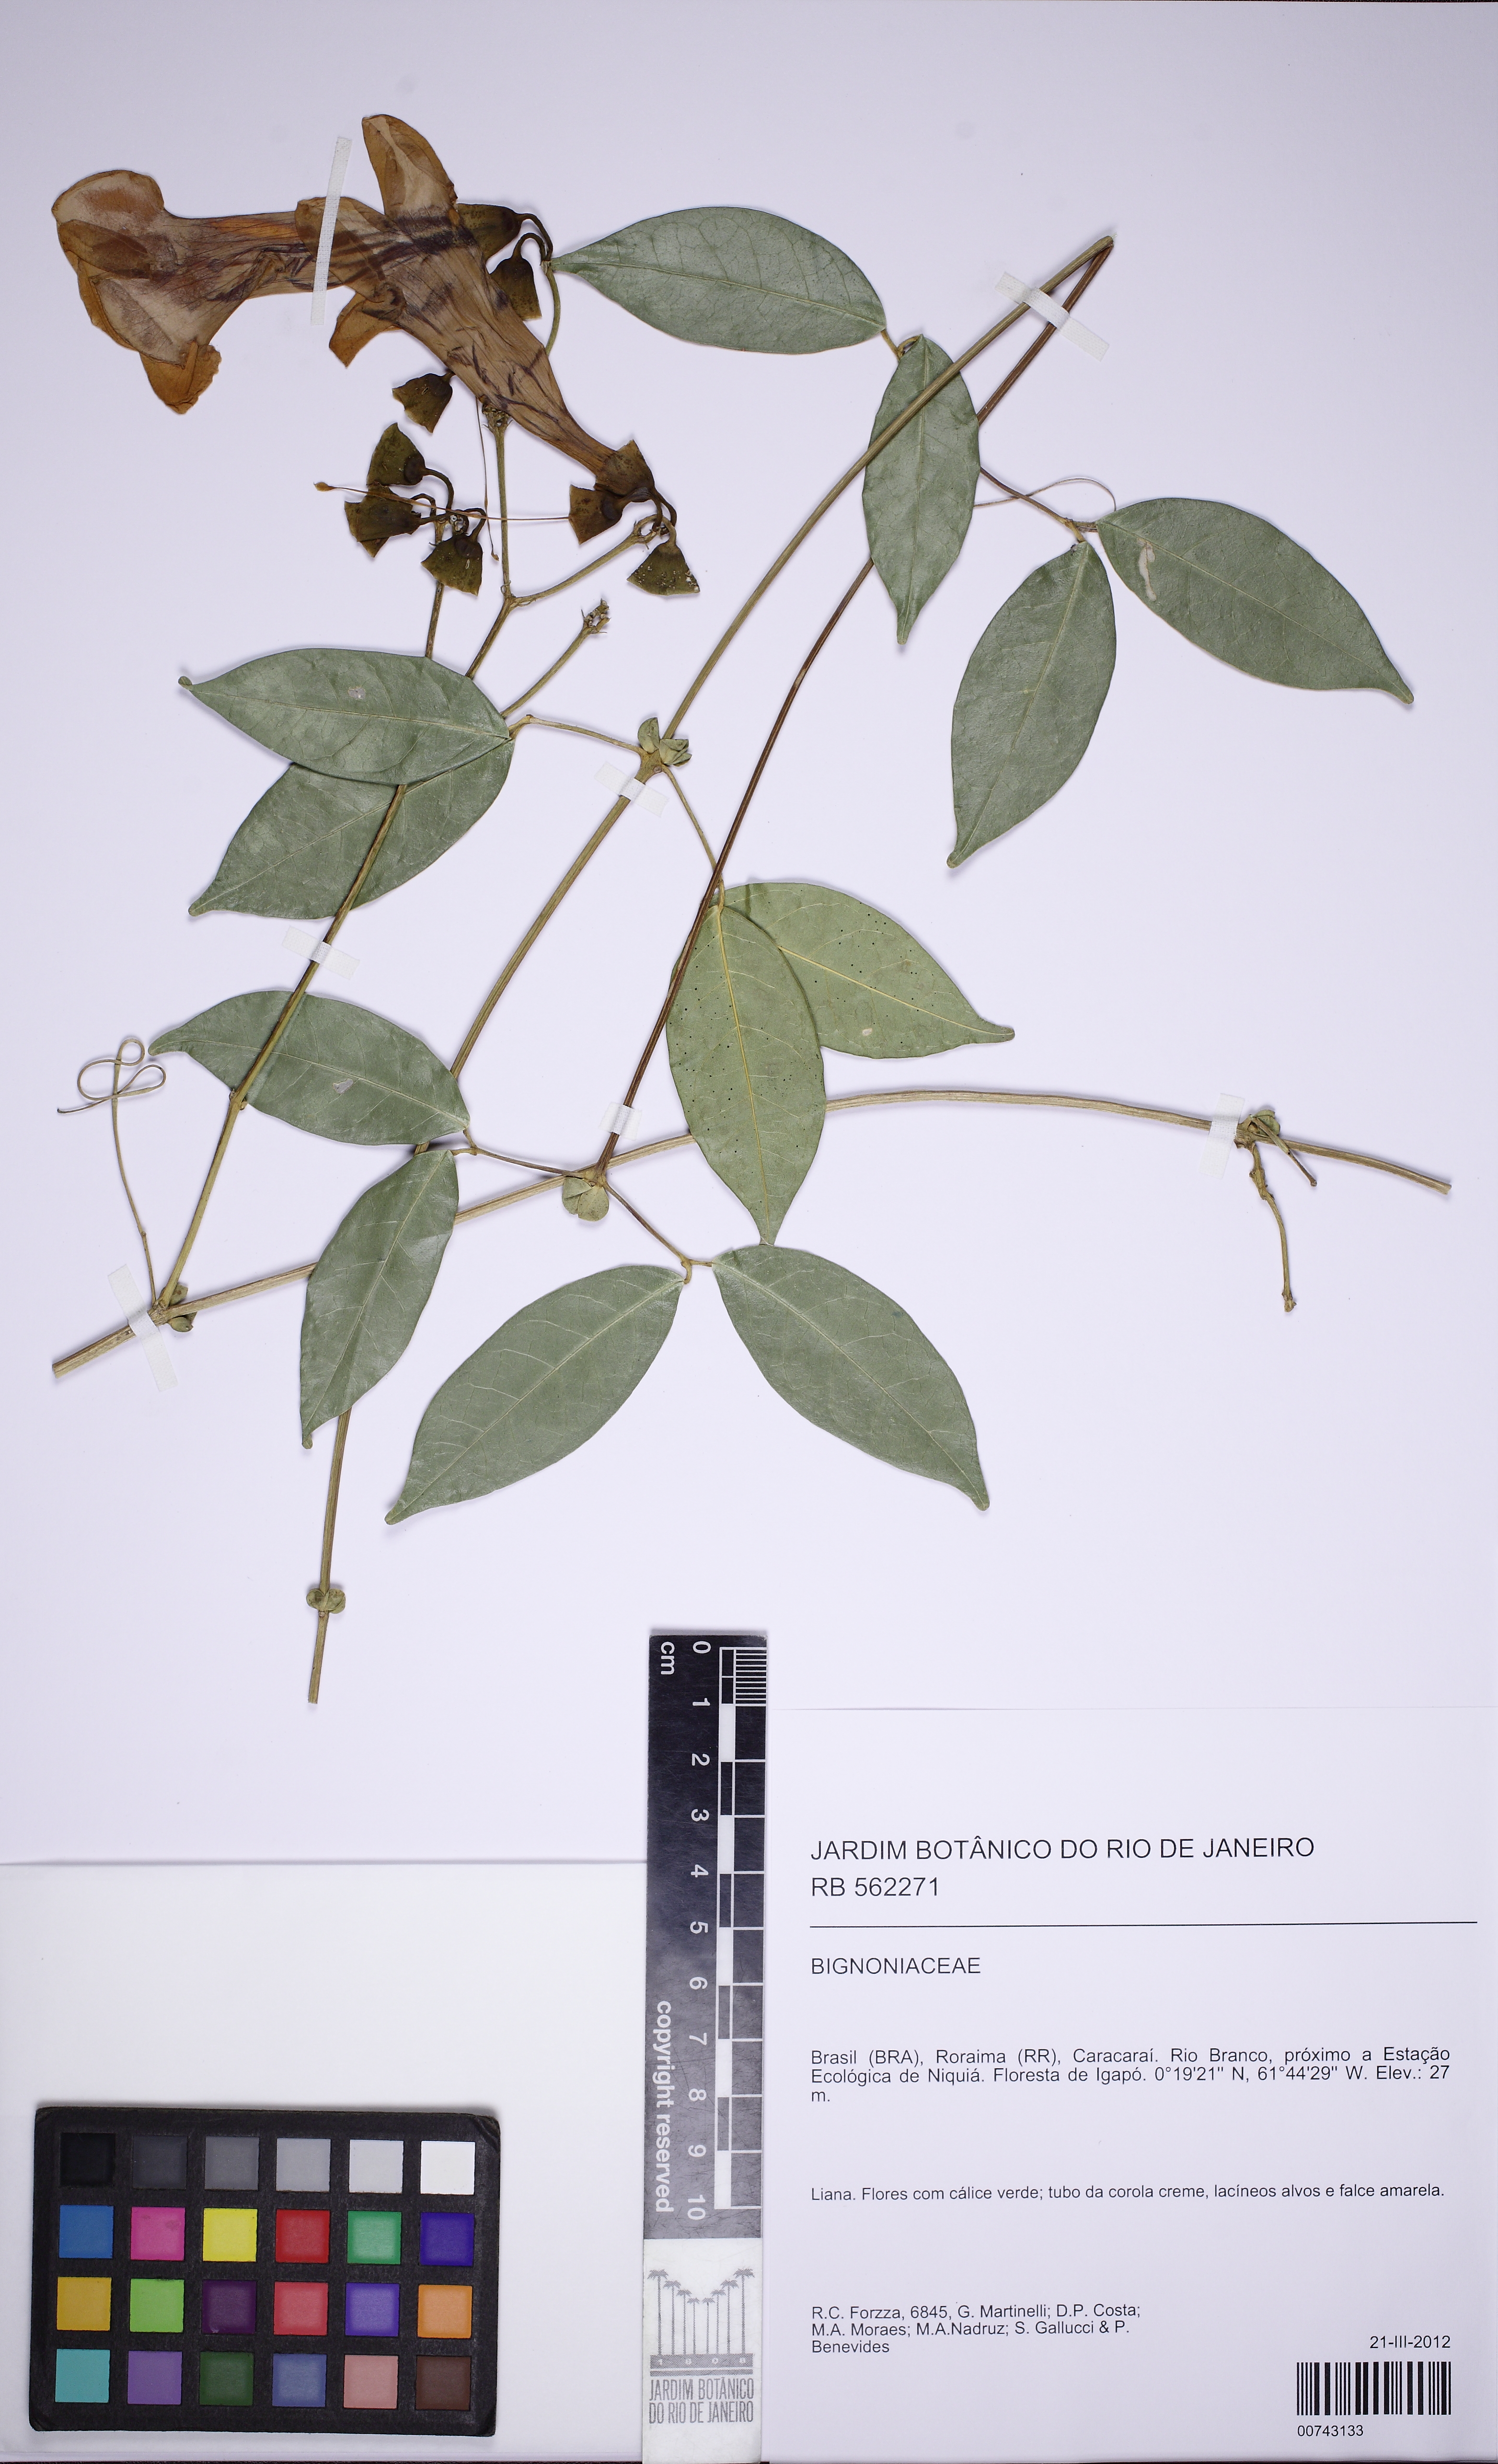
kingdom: Plantae
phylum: Tracheophyta
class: Magnoliopsida
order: Lamiales
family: Bignoniaceae
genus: Anemopaegma
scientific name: Anemopaegma
